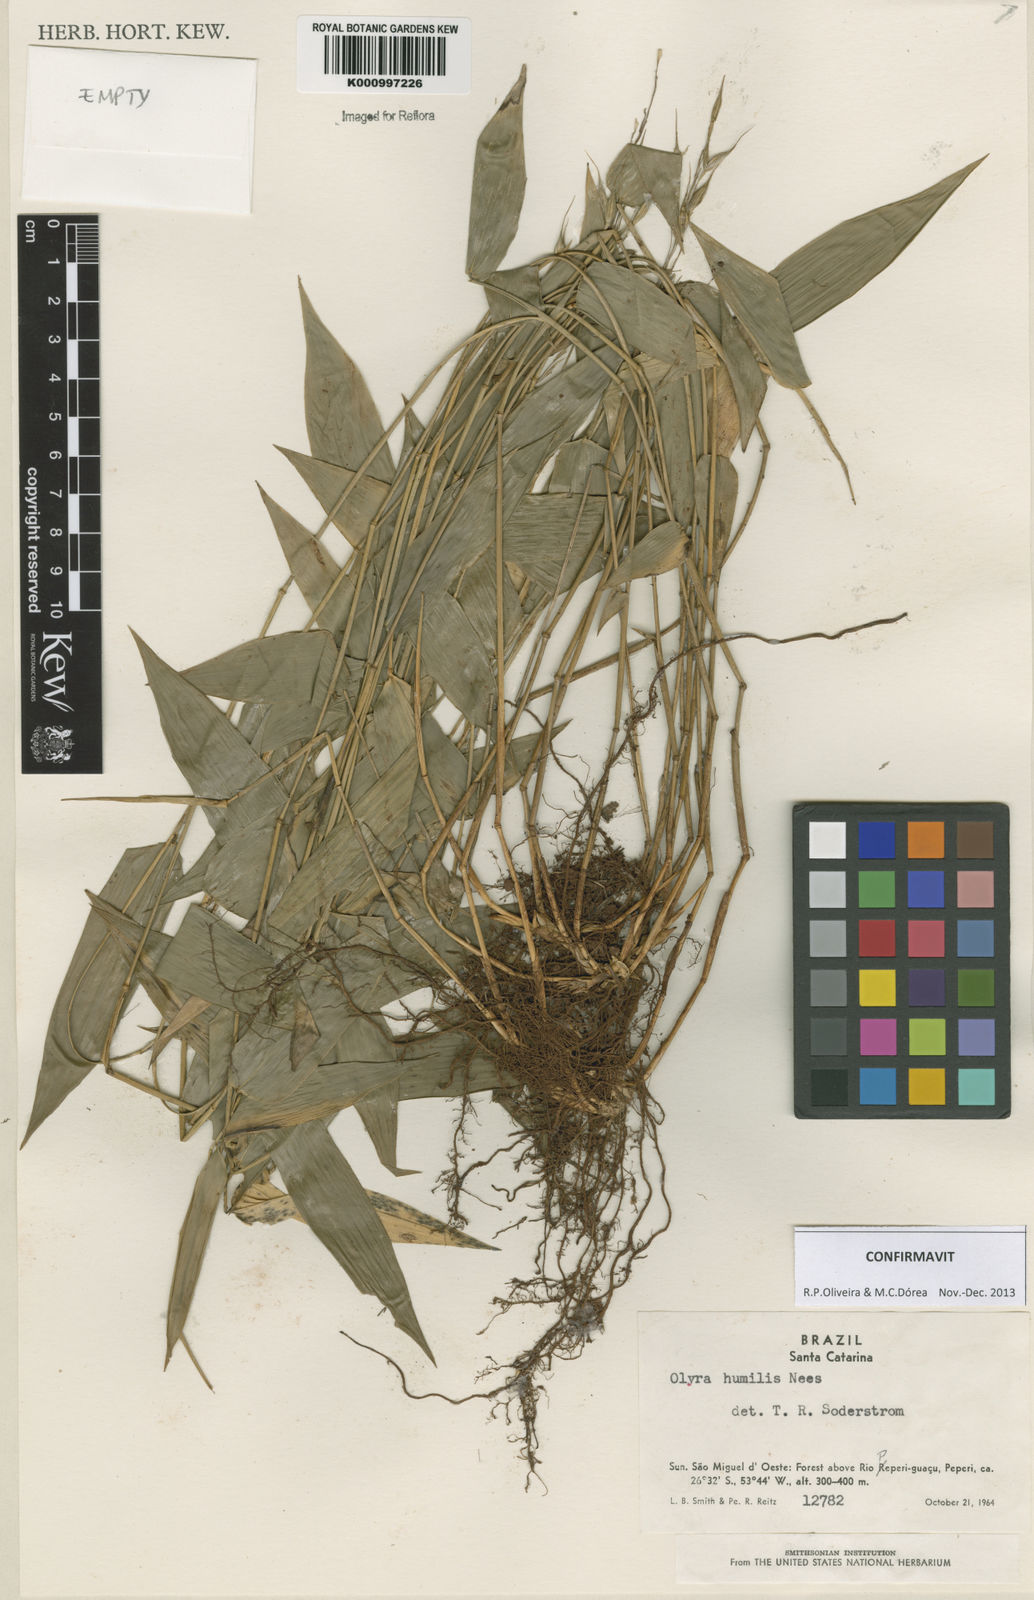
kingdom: Plantae
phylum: Tracheophyta
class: Liliopsida
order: Poales
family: Poaceae
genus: Olyra
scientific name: Olyra humilis
